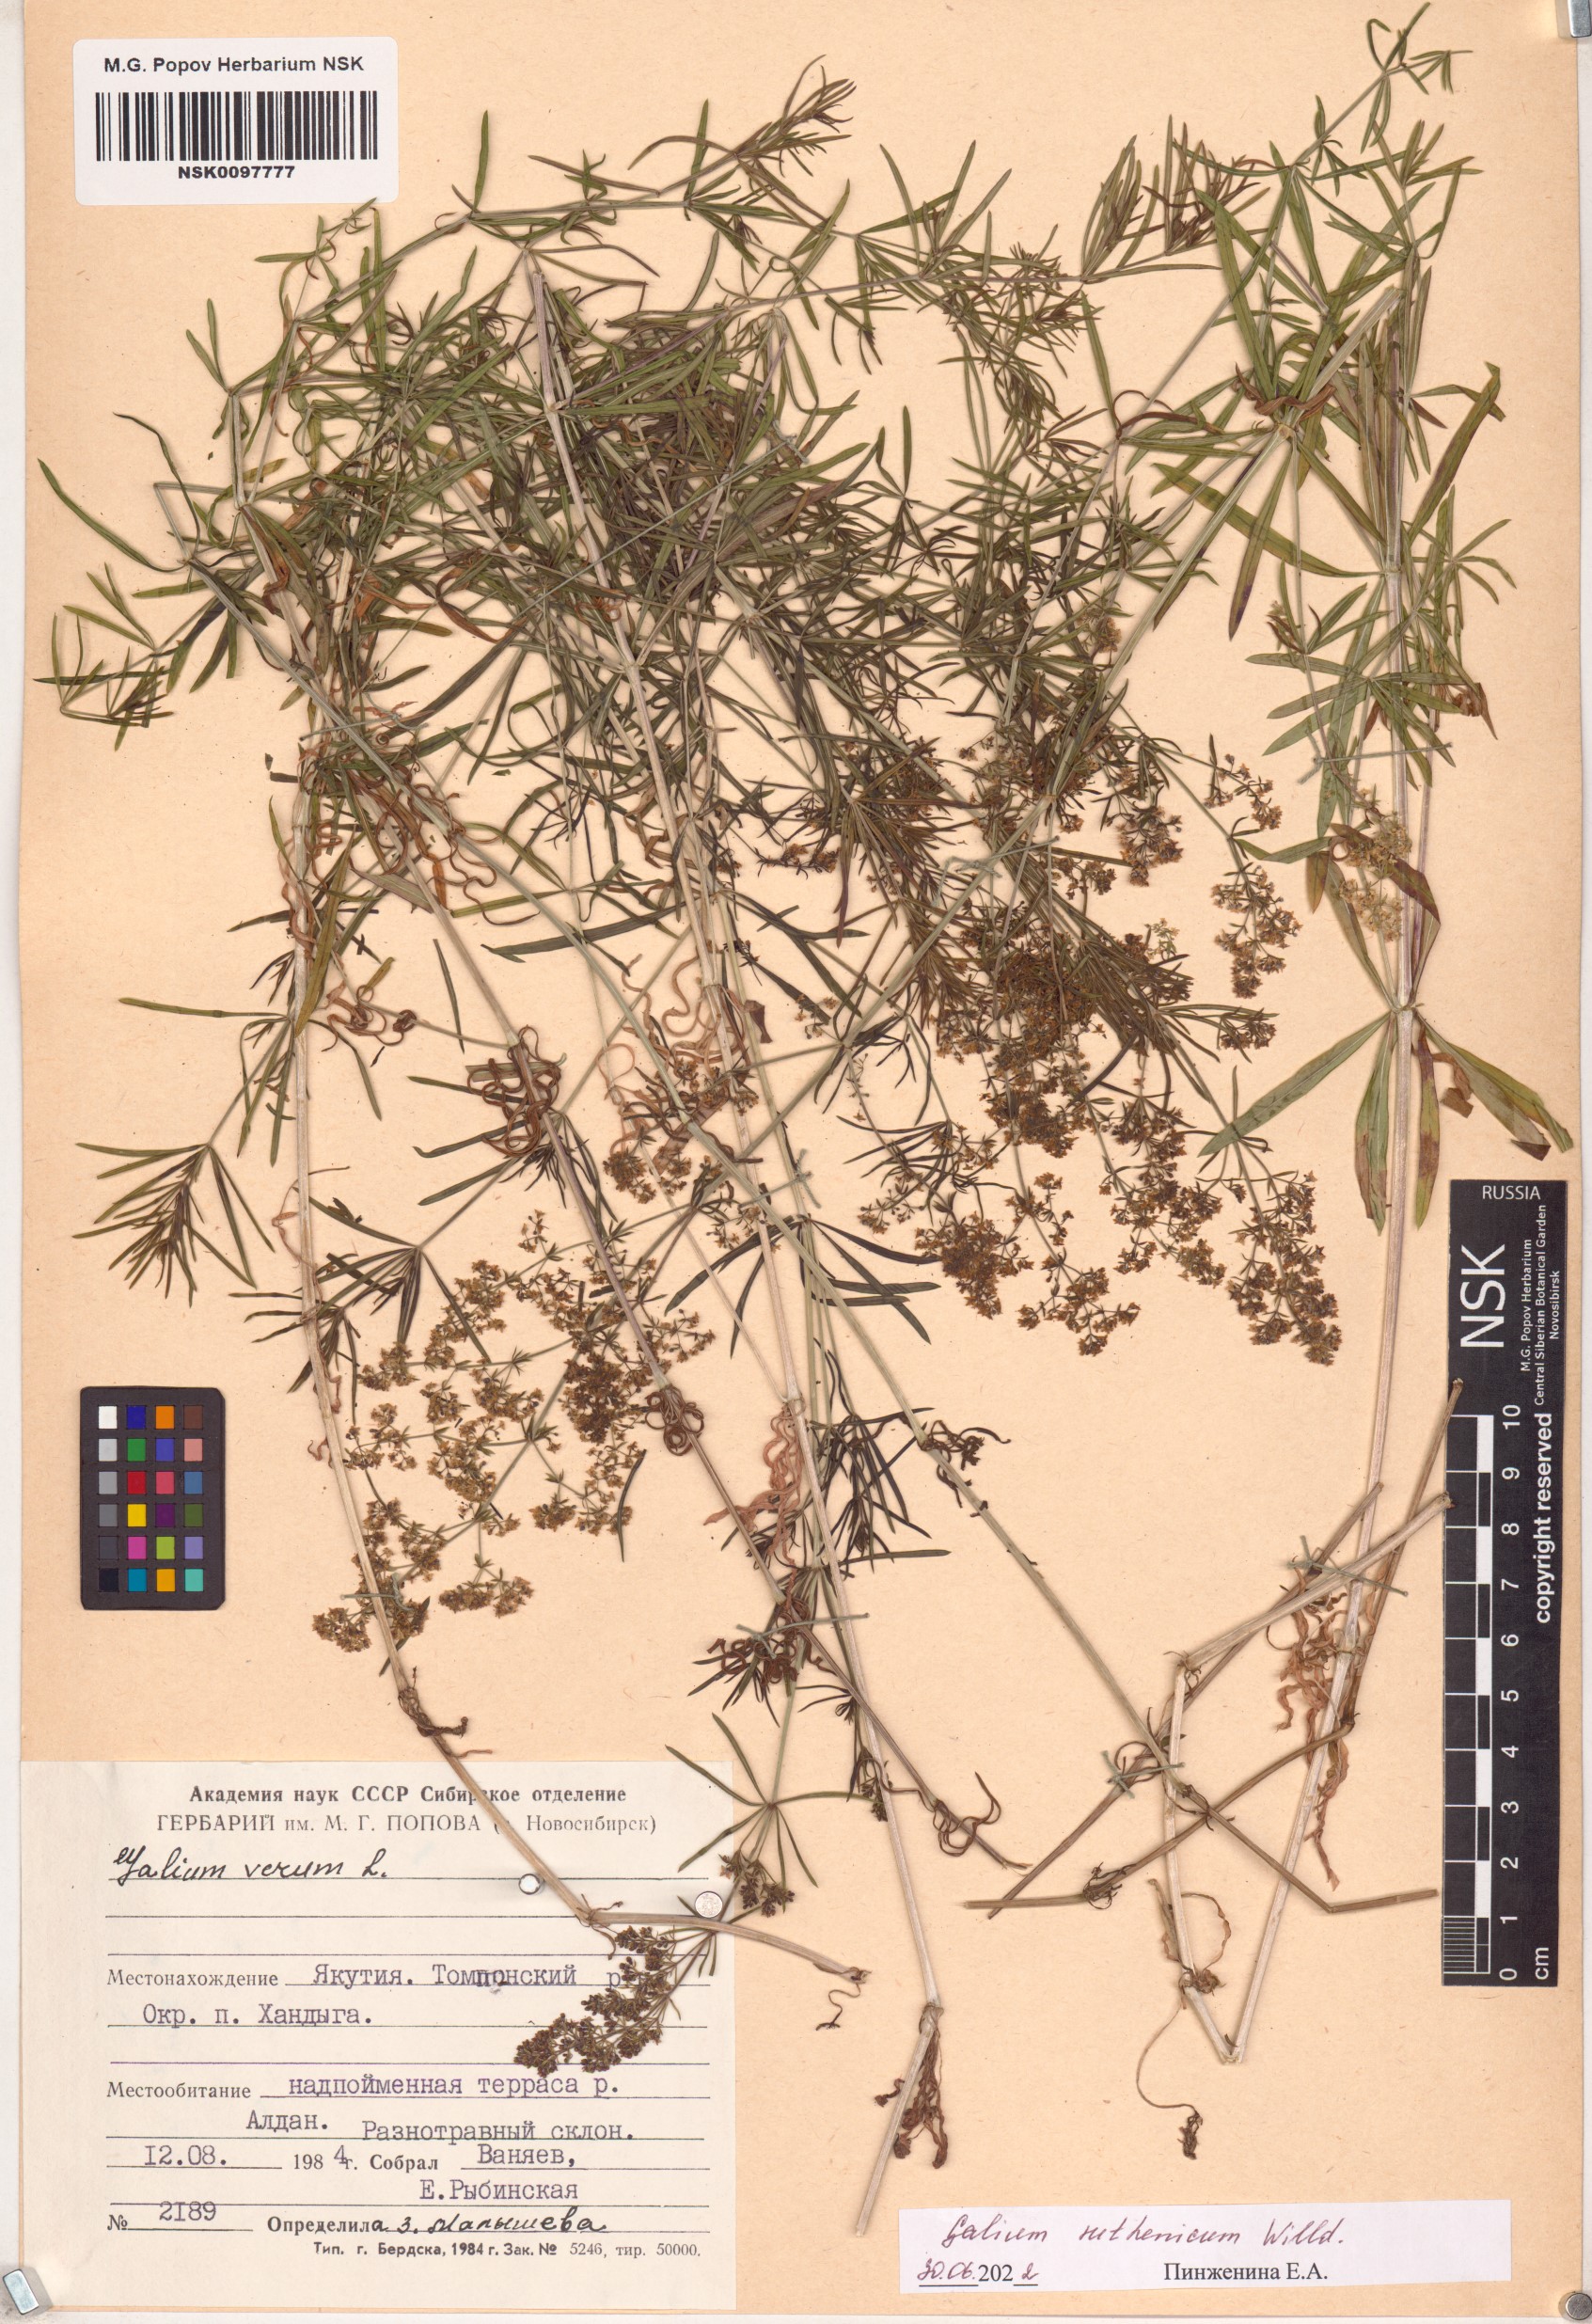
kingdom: Plantae
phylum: Tracheophyta
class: Magnoliopsida
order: Gentianales
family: Rubiaceae
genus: Galium
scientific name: Galium verum
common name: Lady's bedstraw
